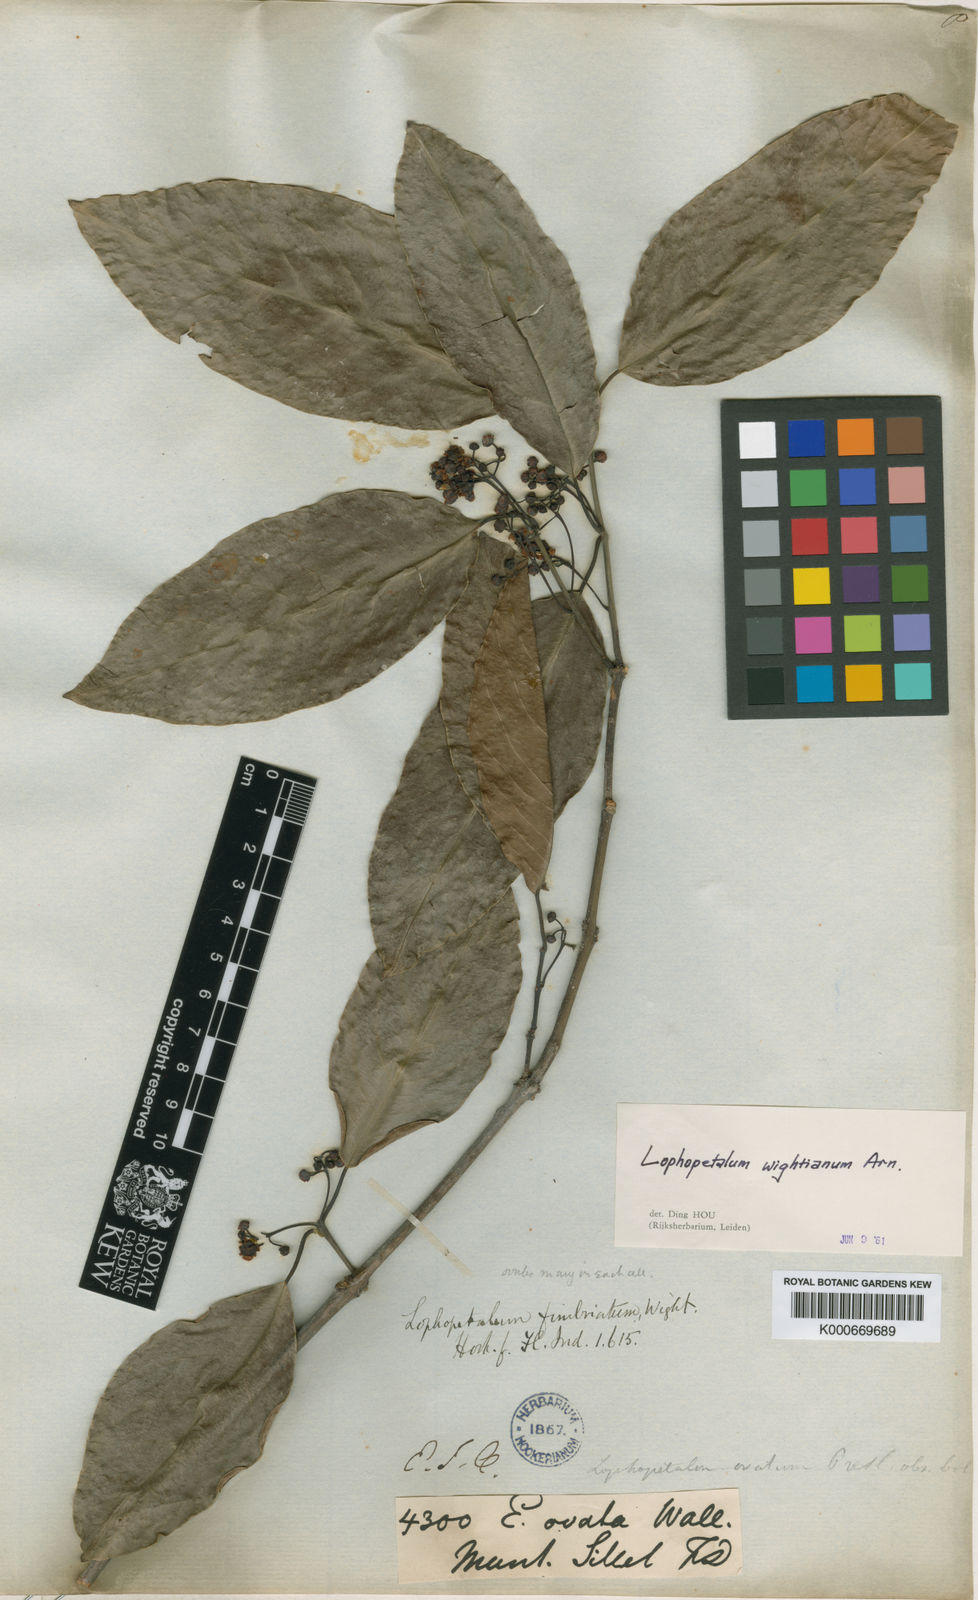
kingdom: Plantae
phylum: Tracheophyta
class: Magnoliopsida
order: Celastrales
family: Celastraceae
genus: Lophopetalum
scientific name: Lophopetalum wightianum
